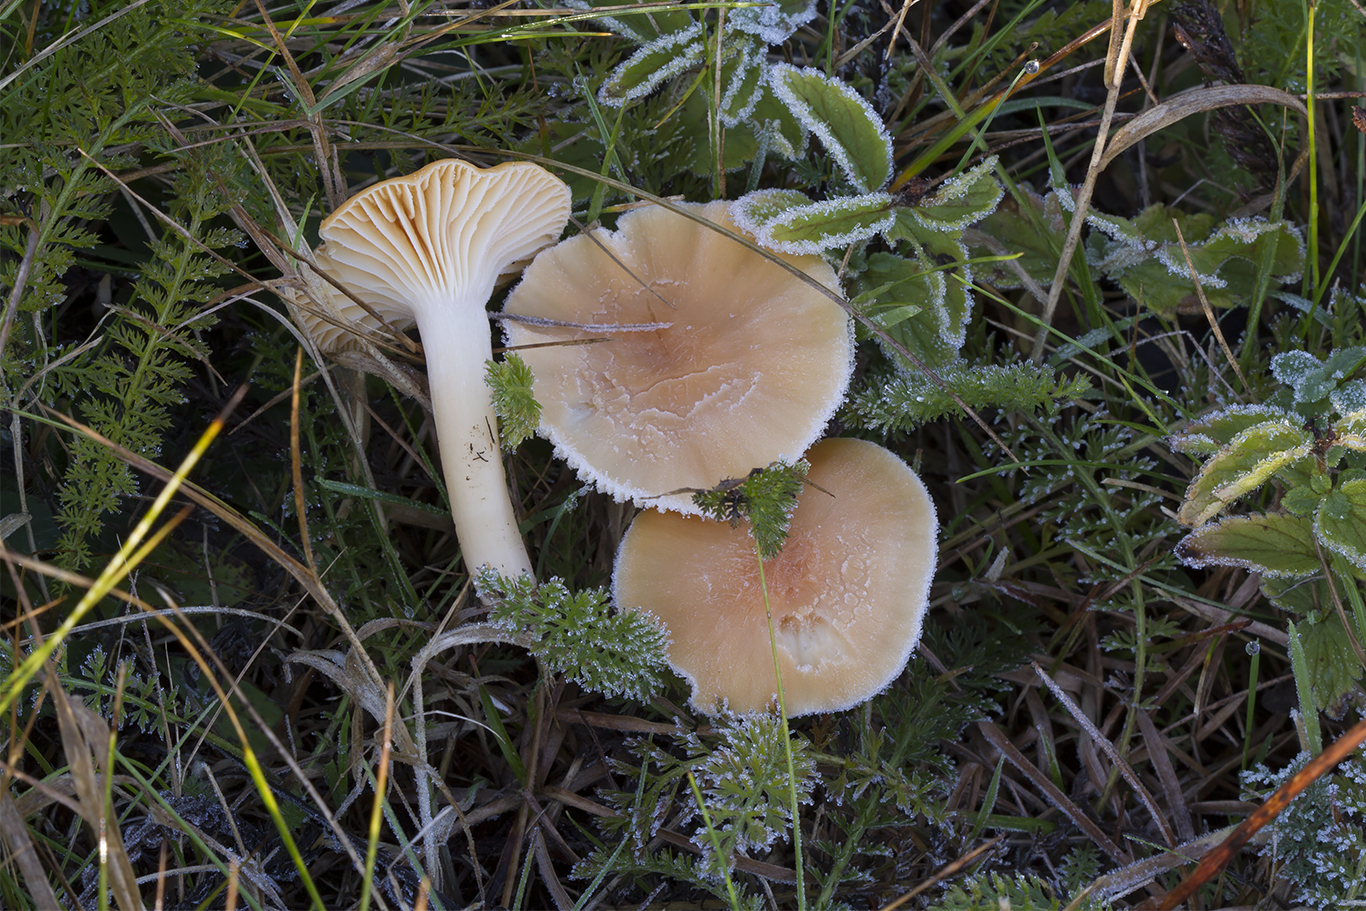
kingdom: Fungi
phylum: Basidiomycota
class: Agaricomycetes
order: Agaricales
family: Hygrophoraceae
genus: Cuphophyllus
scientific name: Cuphophyllus pratensis
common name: eng-vokshat
